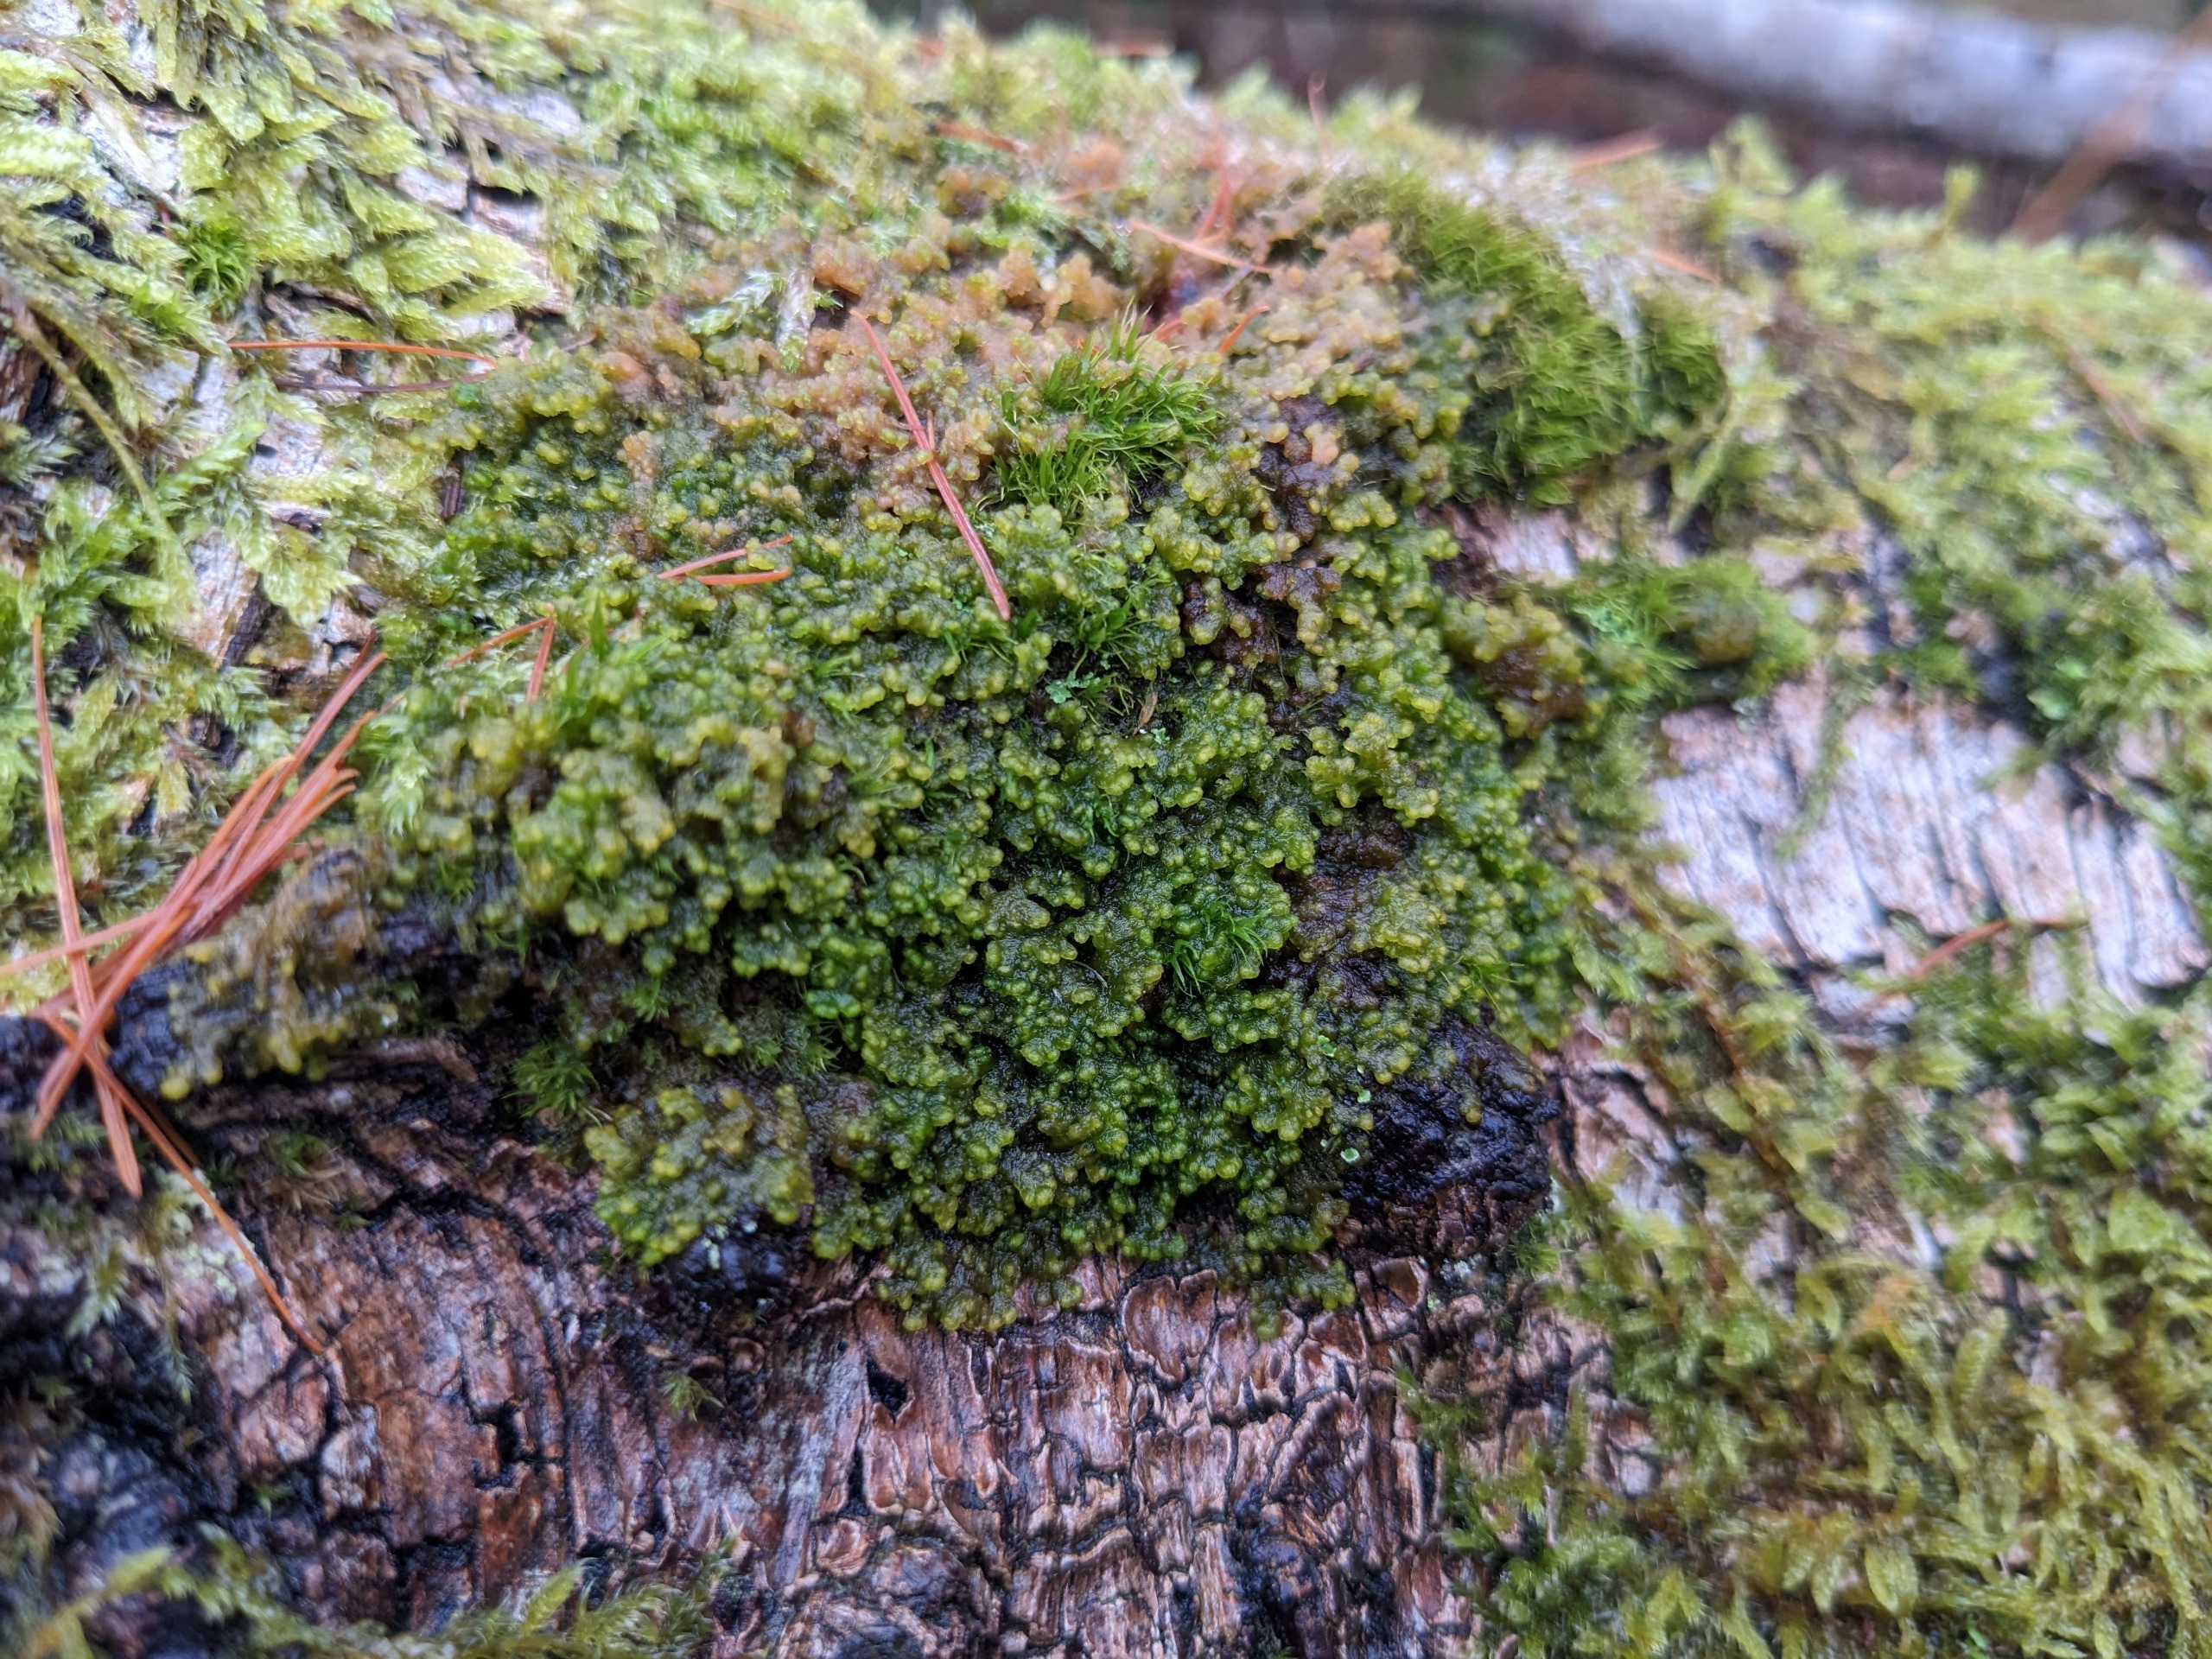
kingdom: Plantae
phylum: Marchantiophyta
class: Jungermanniopsida
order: Ptilidiales
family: Ptilidiaceae
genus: Ptilidium
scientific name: Ptilidium pulcherrimum
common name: Stub-frynsemos
